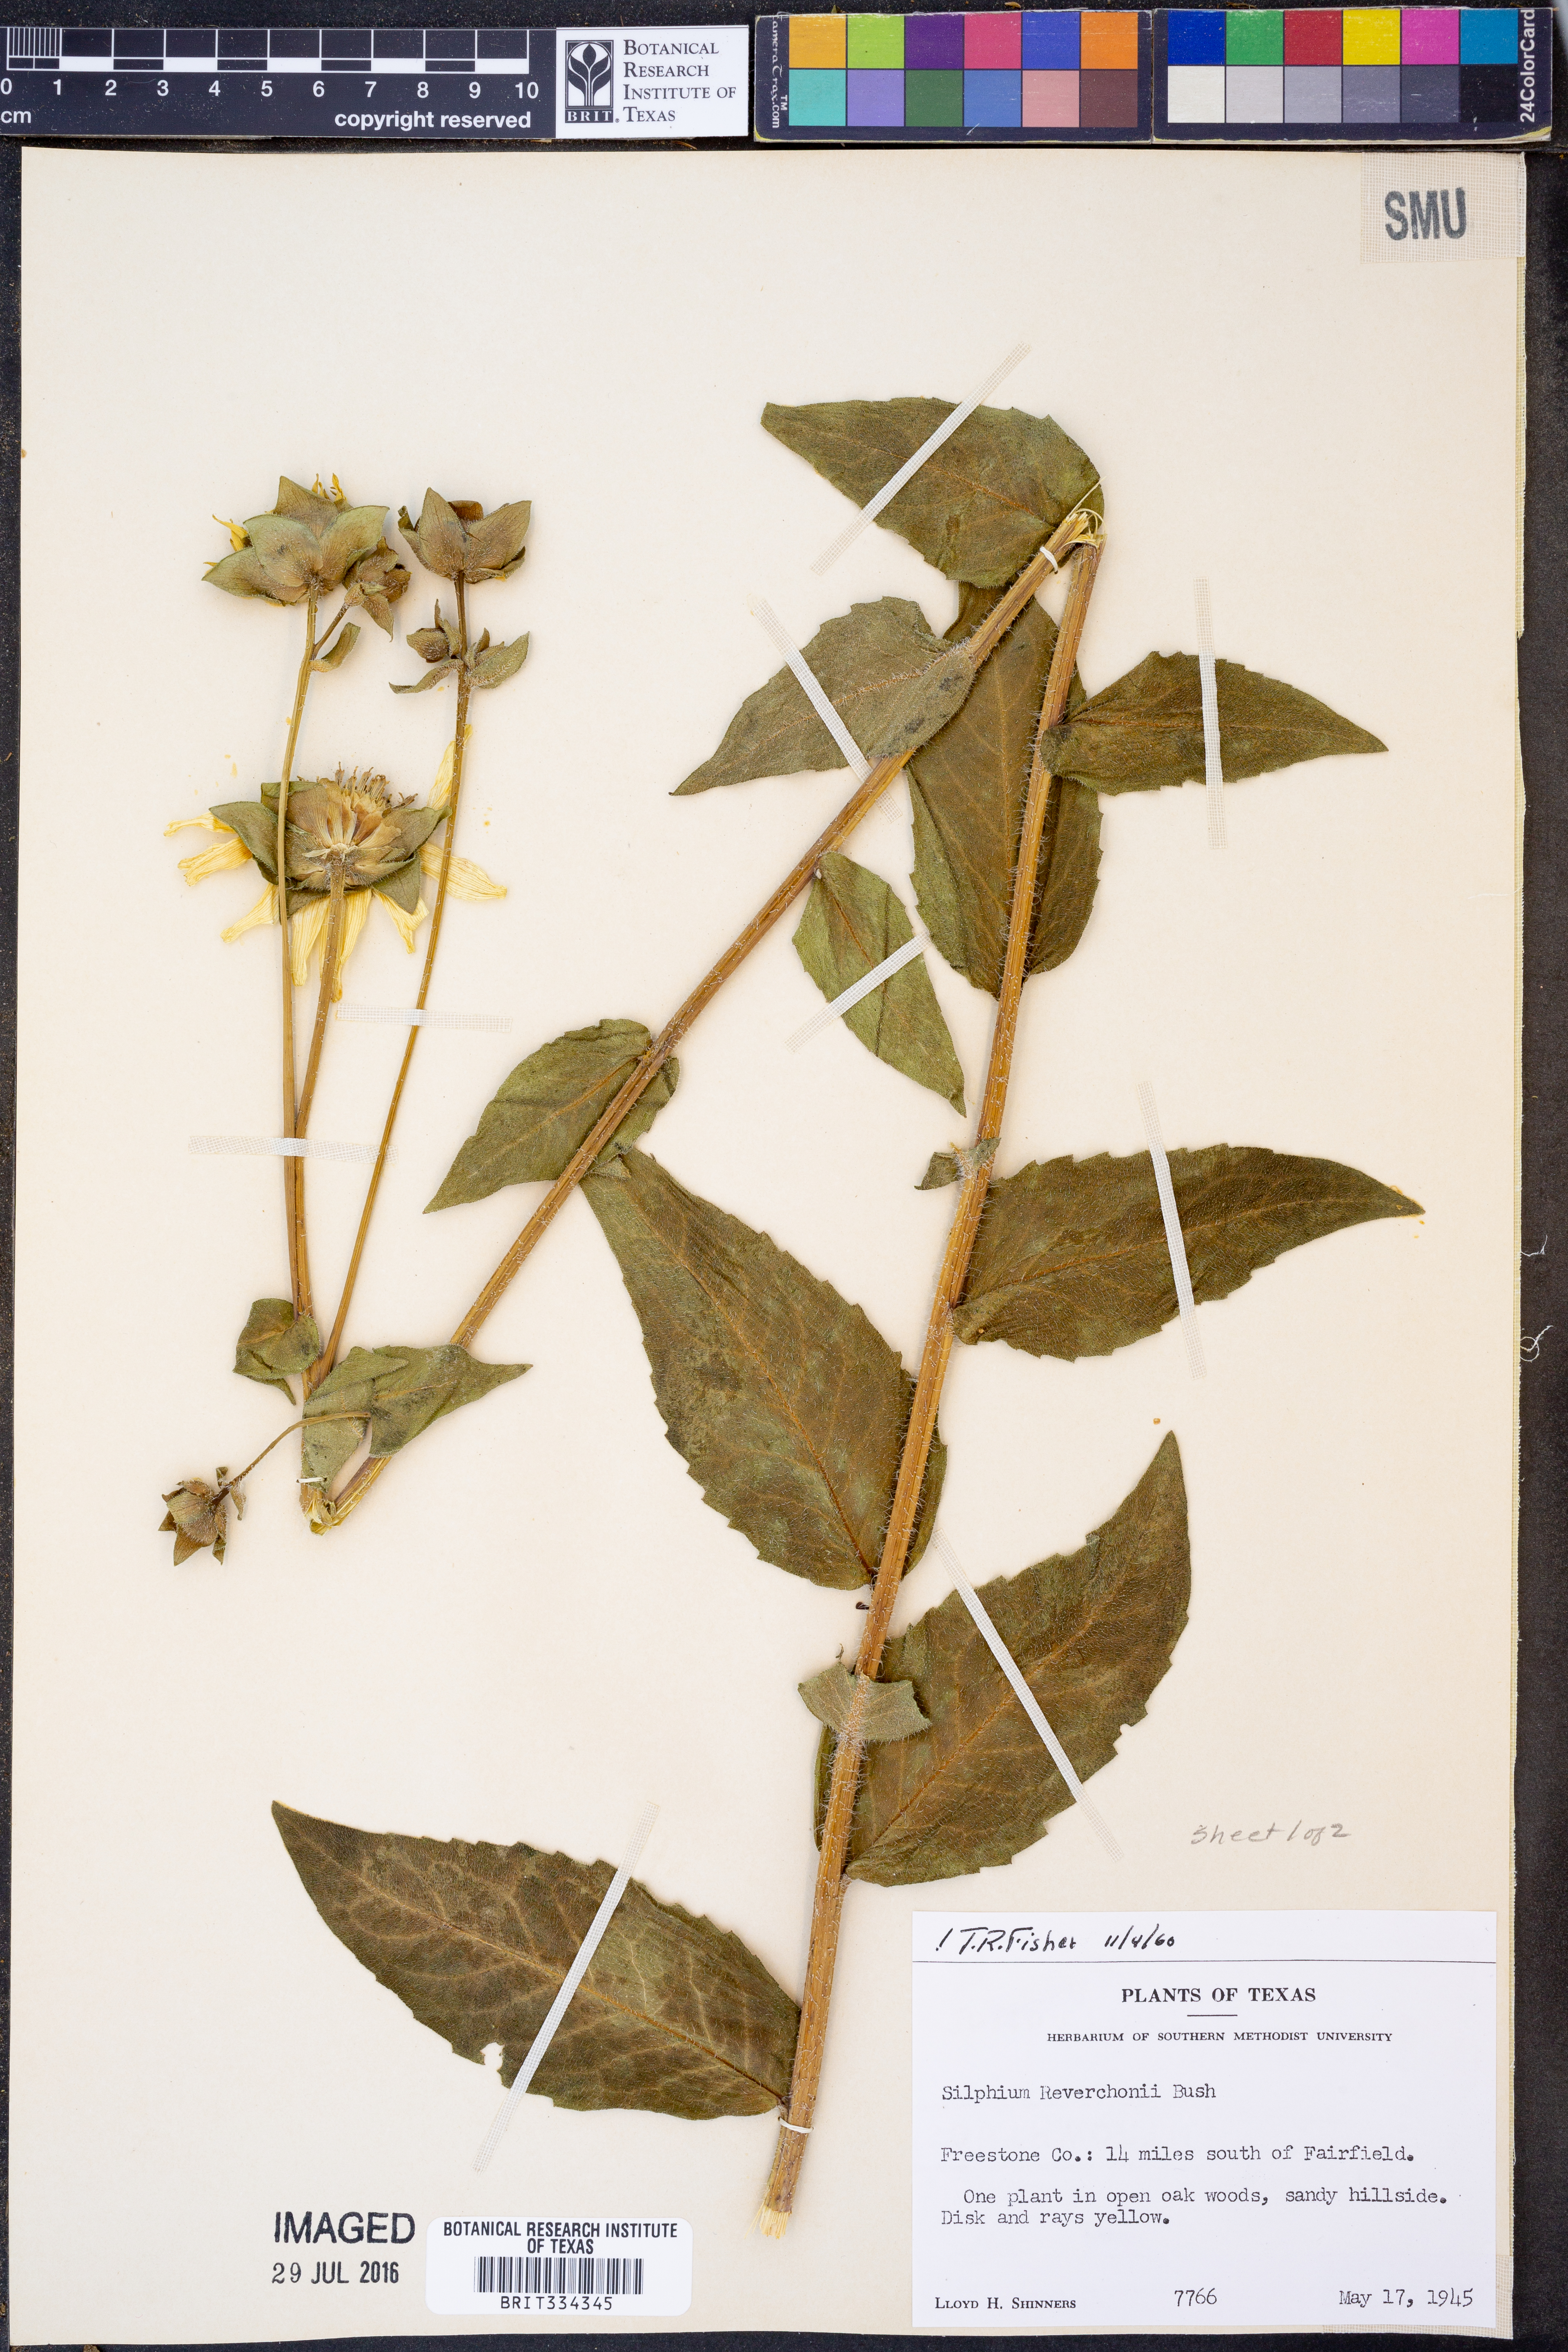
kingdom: Plantae
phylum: Tracheophyta
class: Magnoliopsida
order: Asterales
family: Asteraceae
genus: Silphium
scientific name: Silphium radula
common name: Roughleaf rosinweed
